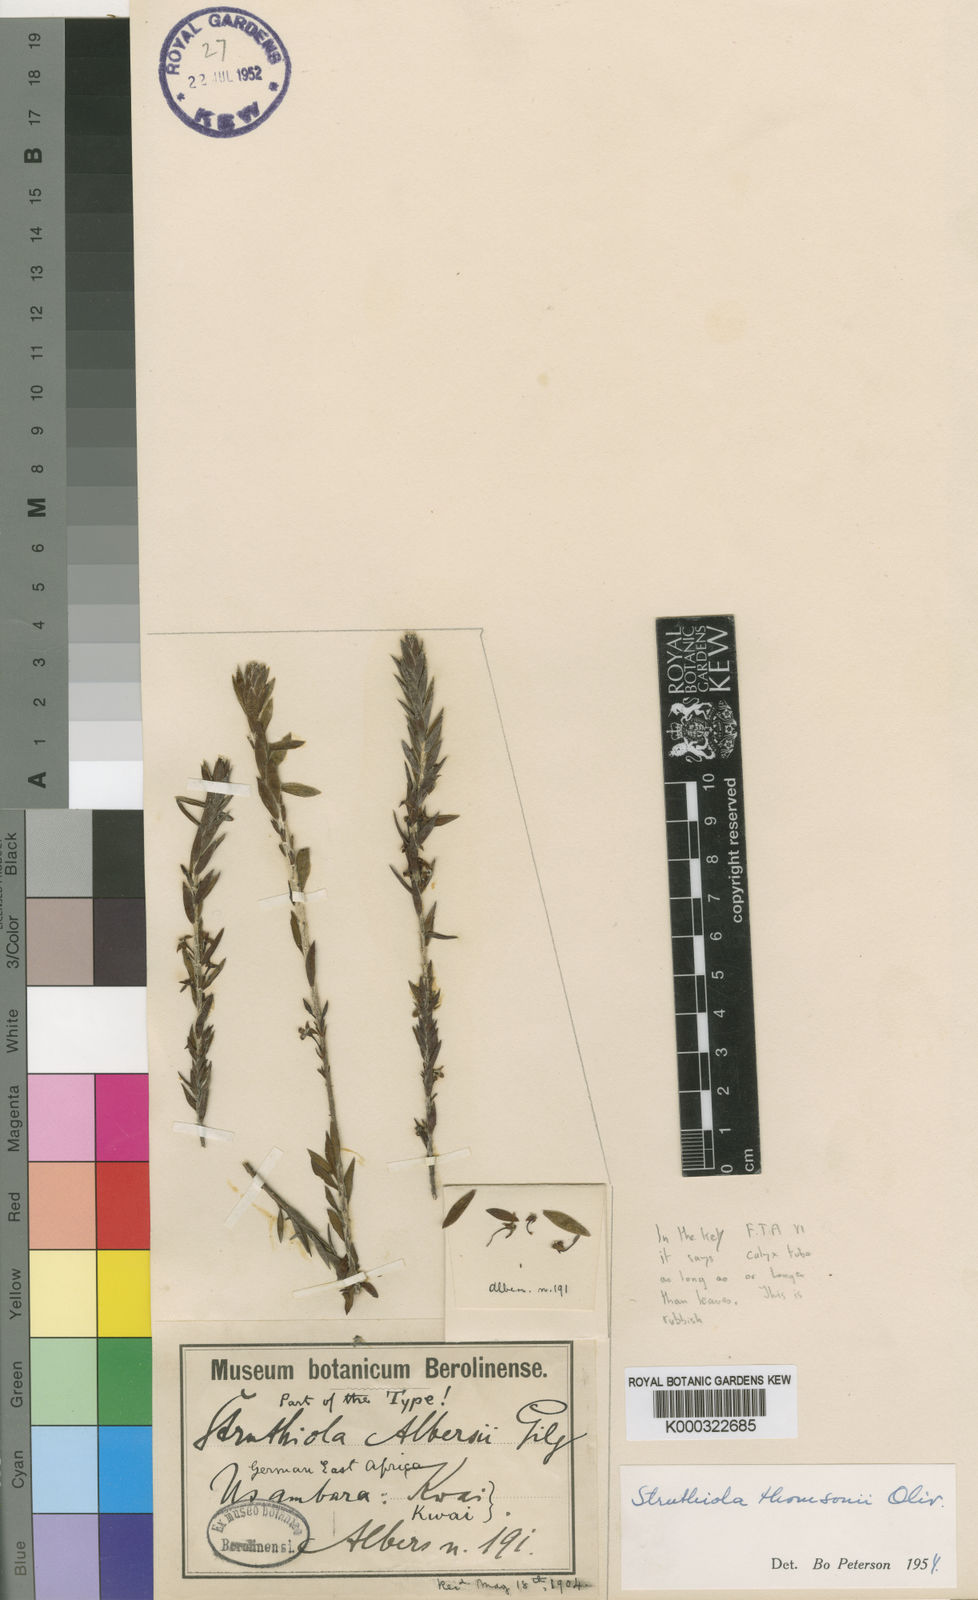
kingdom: Plantae
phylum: Tracheophyta
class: Magnoliopsida
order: Malvales
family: Thymelaeaceae
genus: Struthiola
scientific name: Struthiola thomsonii
